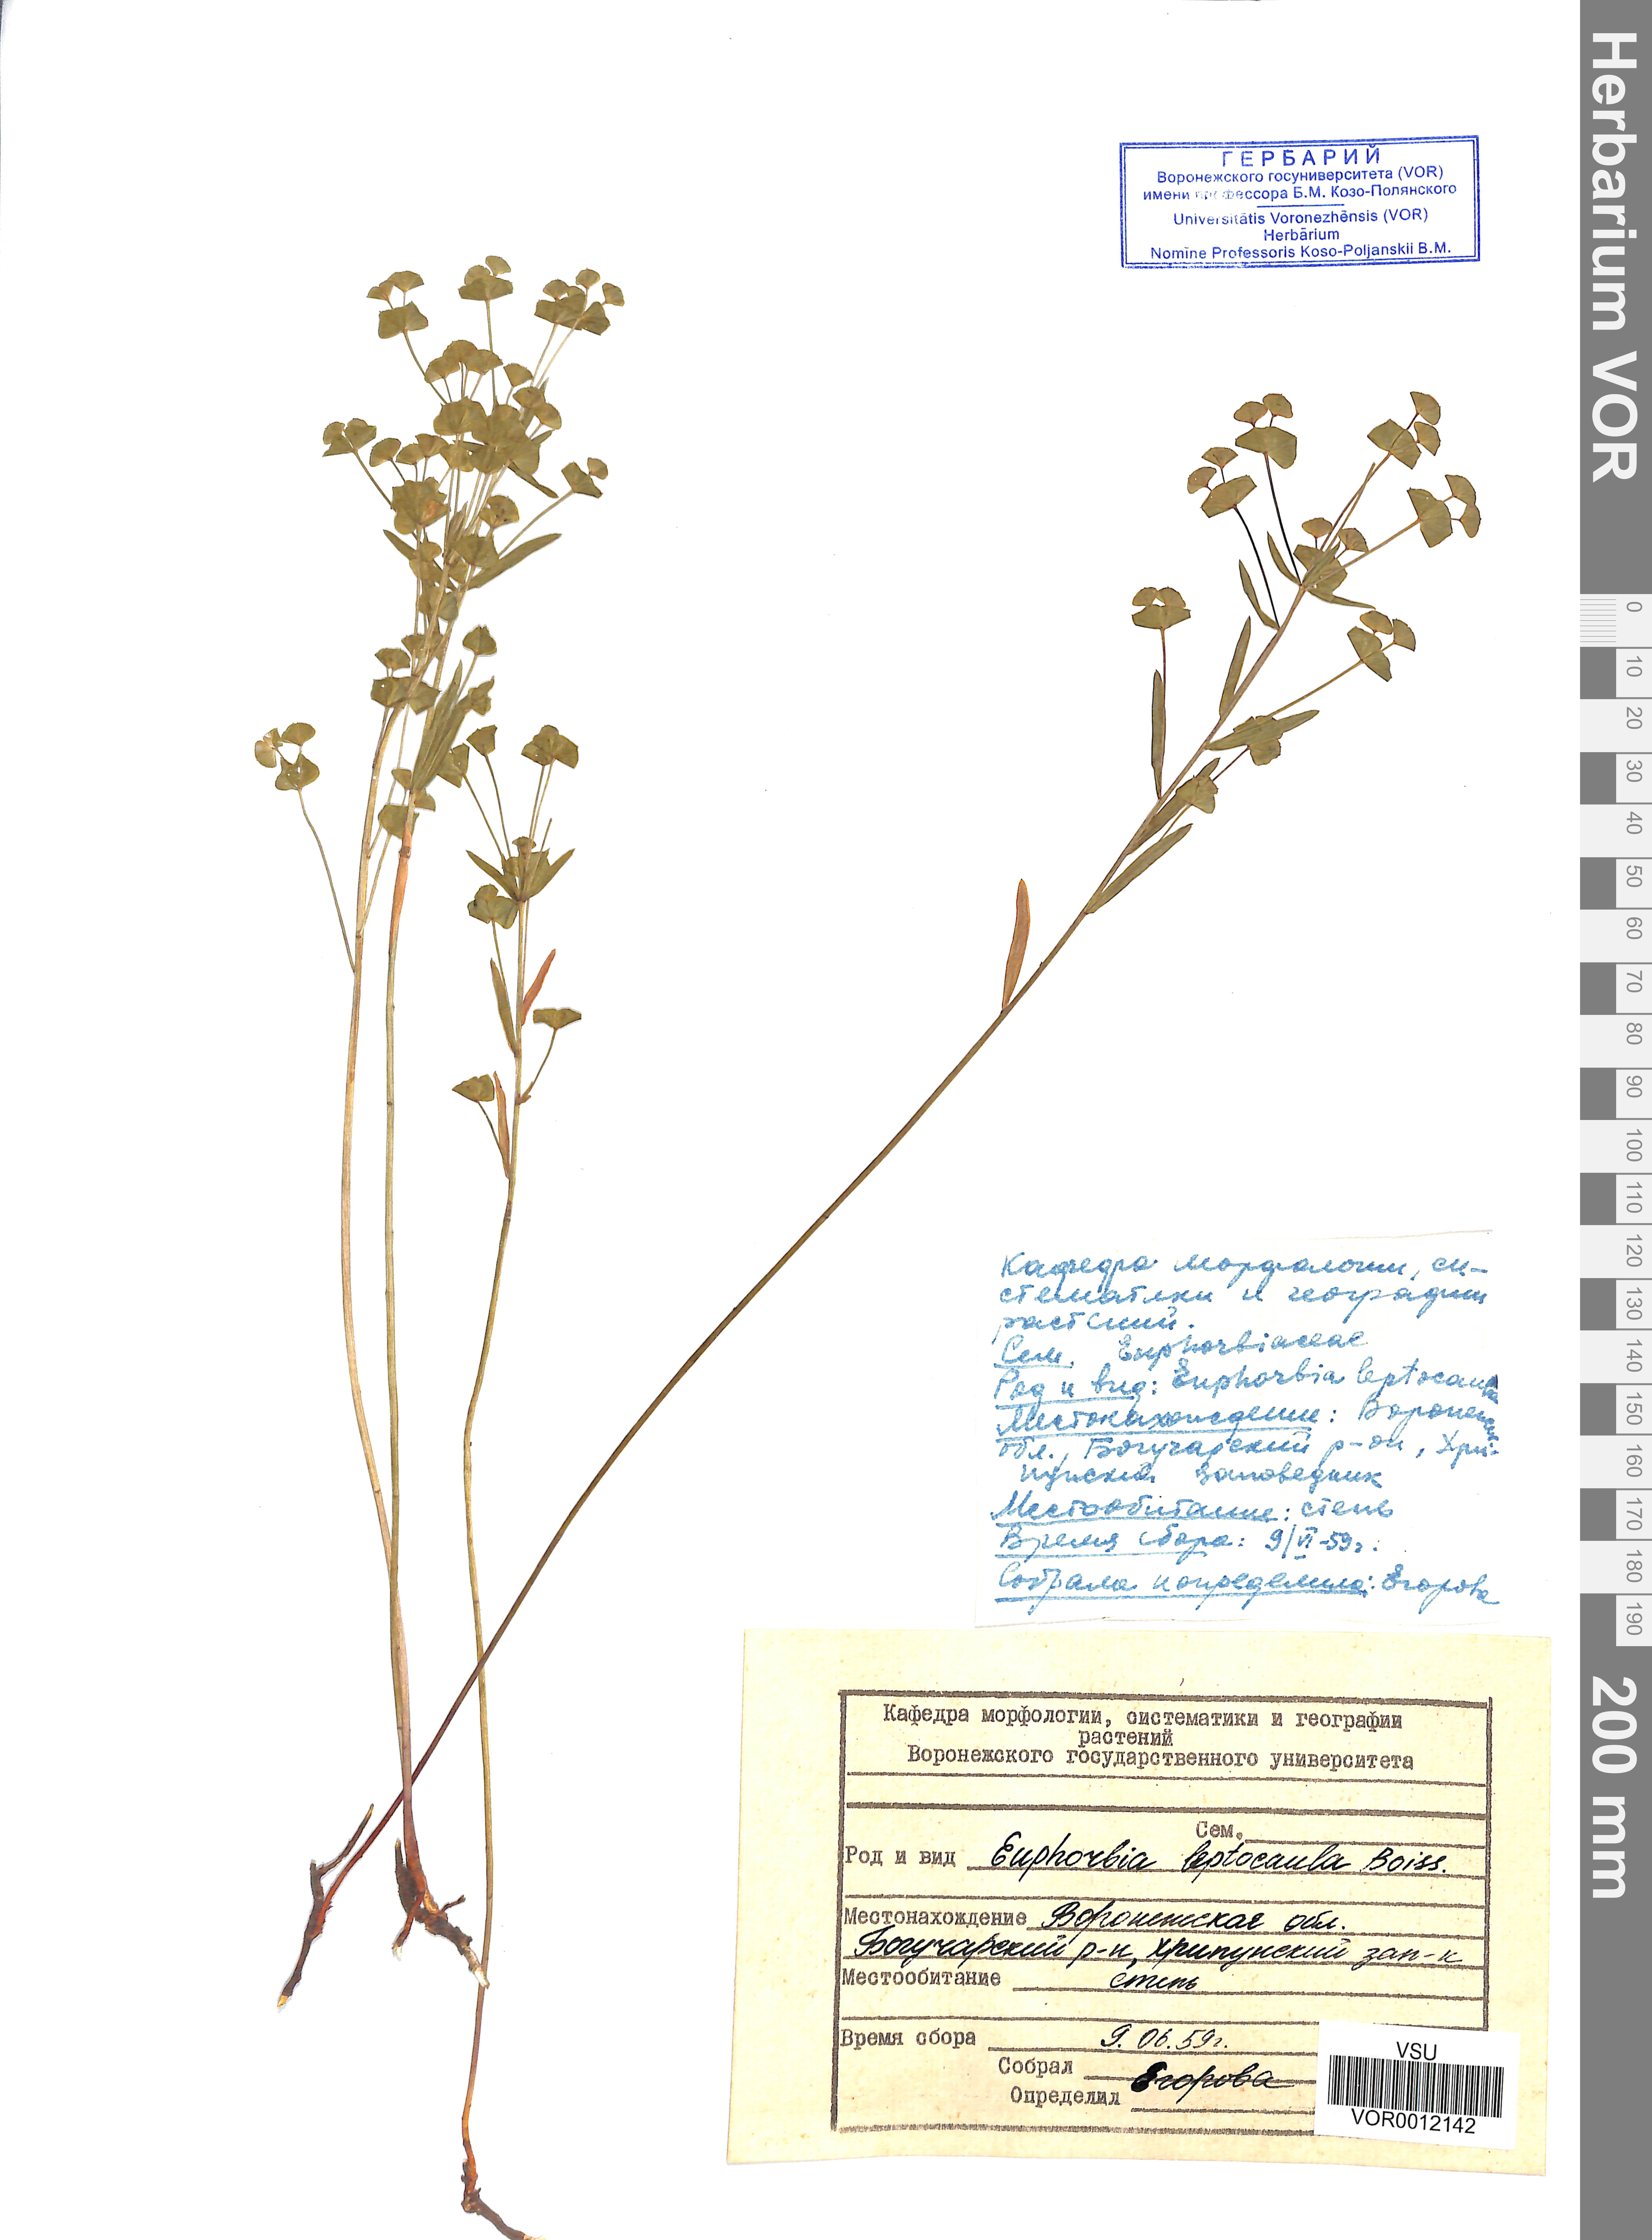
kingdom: Plantae
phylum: Tracheophyta
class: Magnoliopsida
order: Malpighiales
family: Euphorbiaceae
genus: Euphorbia
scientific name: Euphorbia leptocaula
